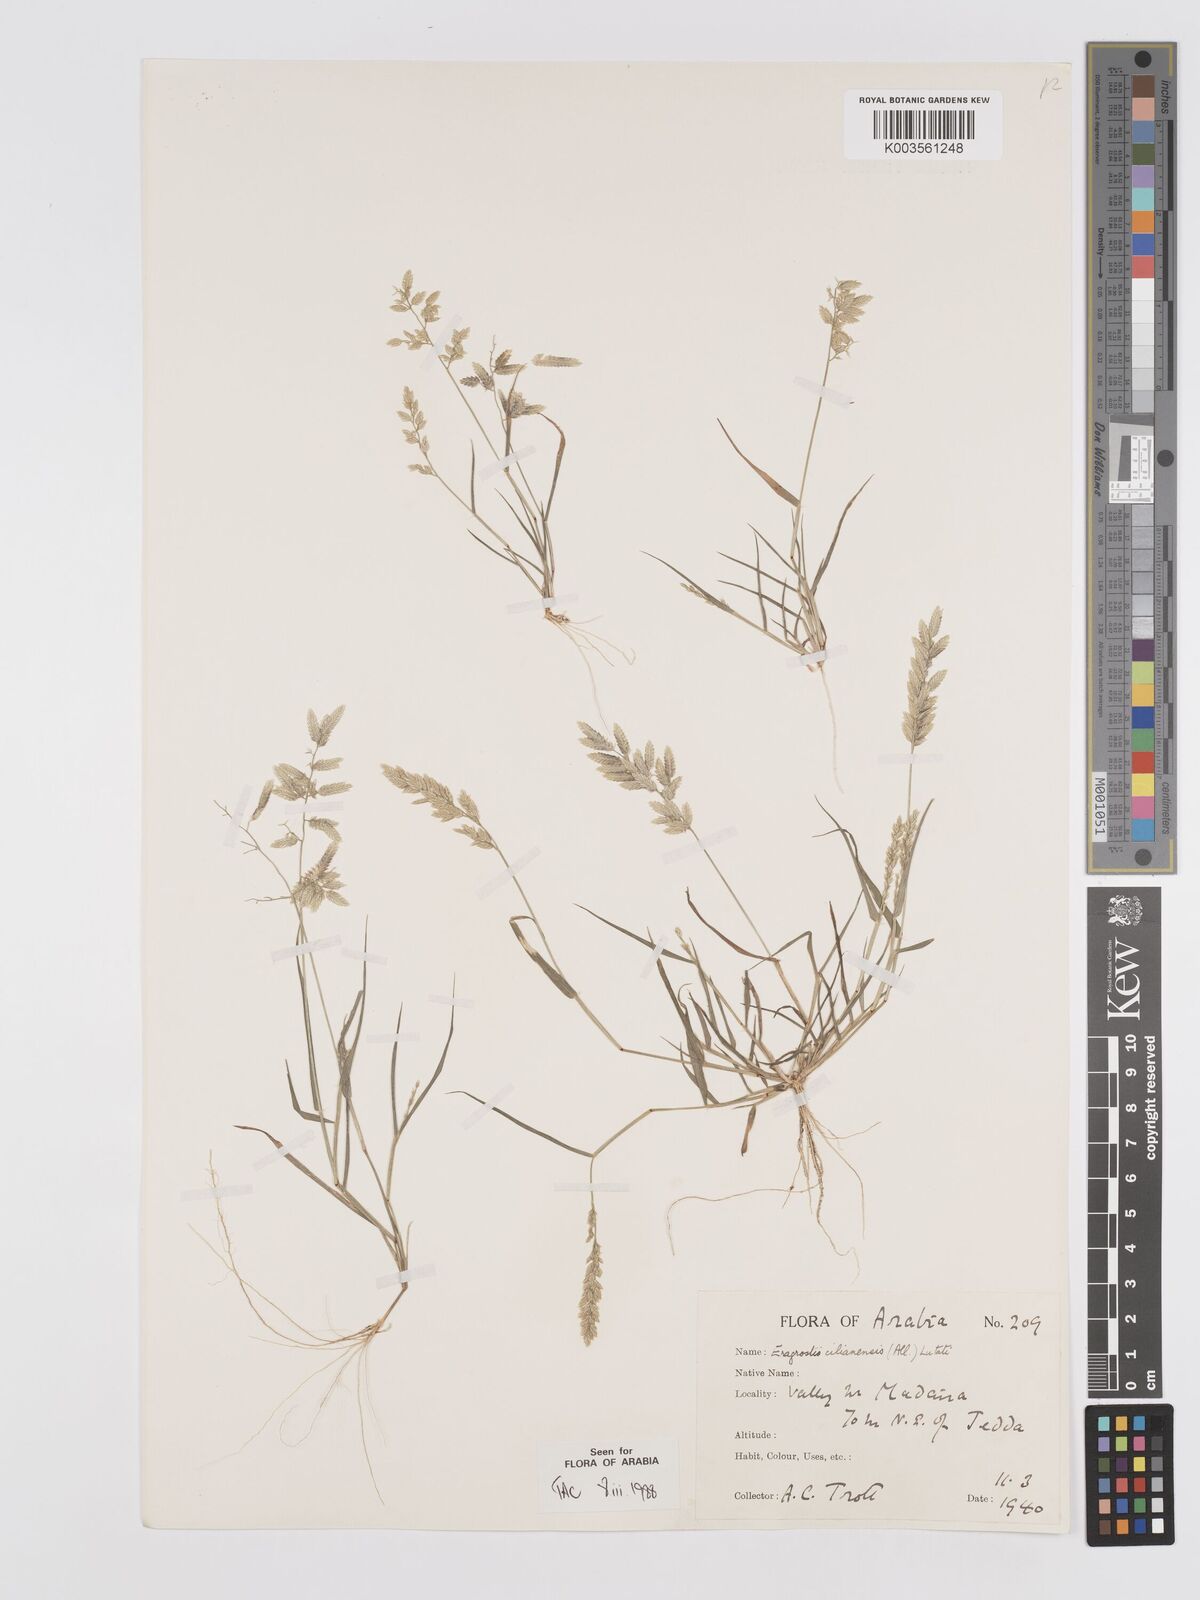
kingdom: Plantae
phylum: Tracheophyta
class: Liliopsida
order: Poales
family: Poaceae
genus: Eragrostis
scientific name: Eragrostis cilianensis
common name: Stinkgrass
